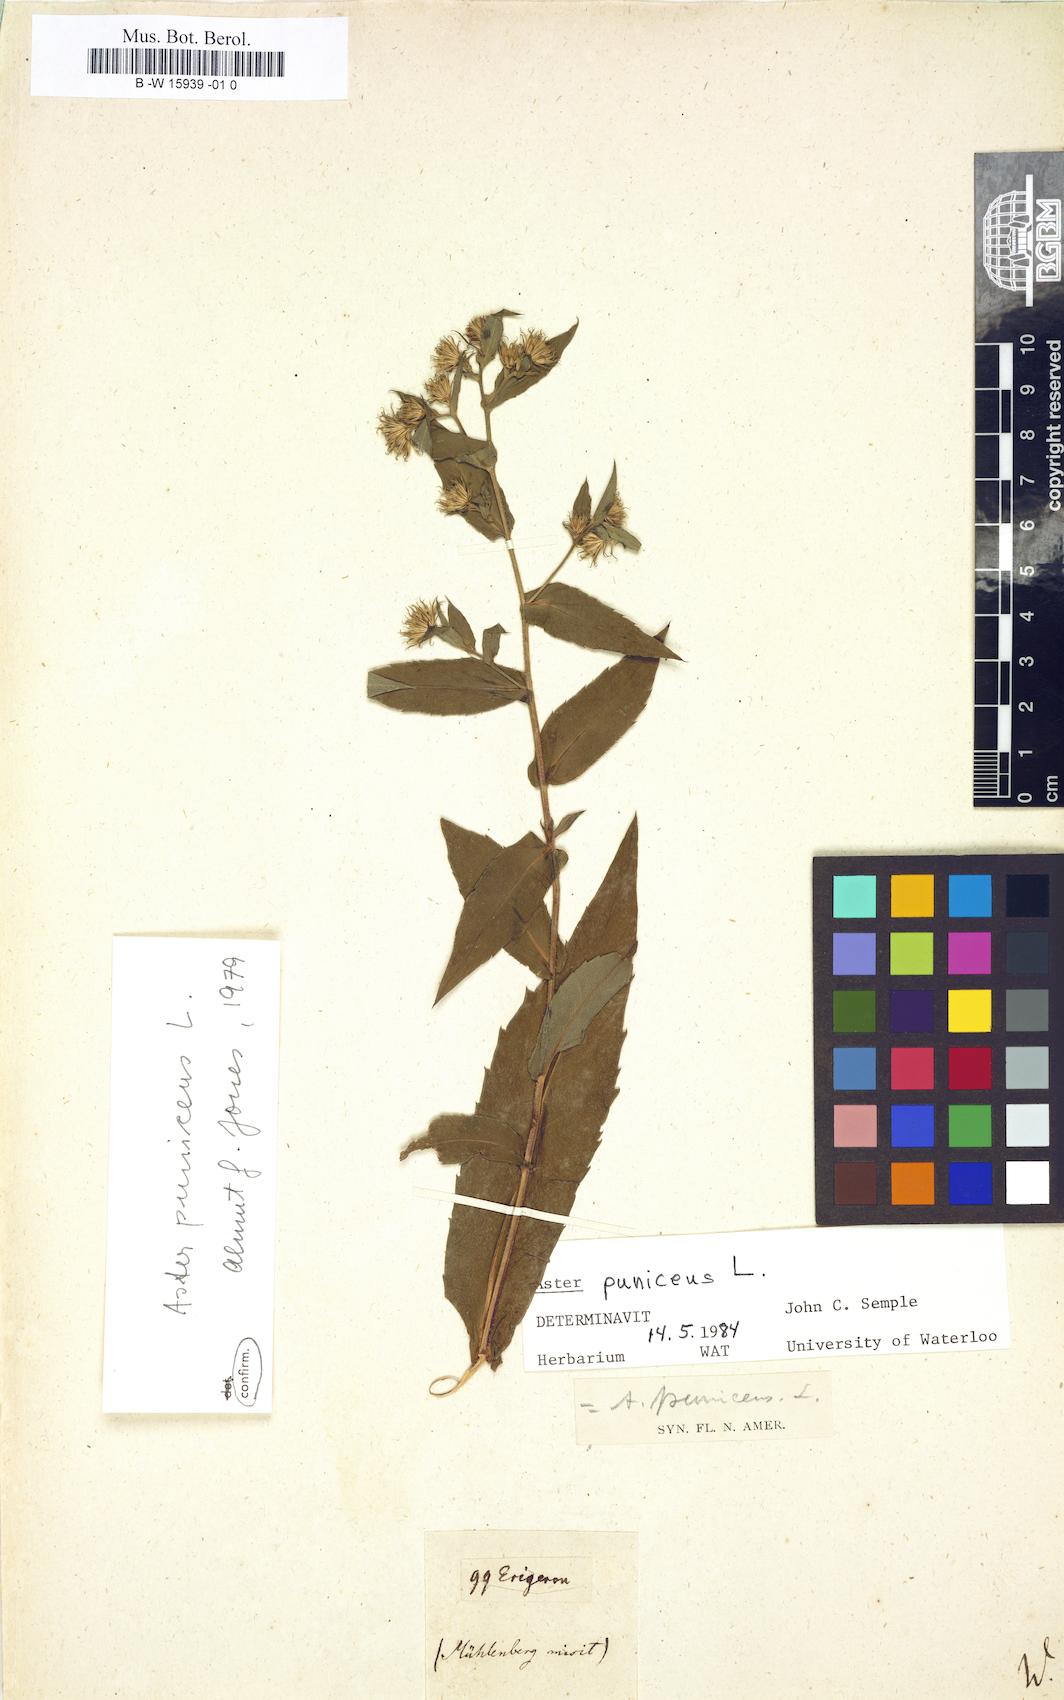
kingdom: Plantae
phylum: Tracheophyta
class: Magnoliopsida
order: Asterales
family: Asteraceae
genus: Aster
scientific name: Aster
